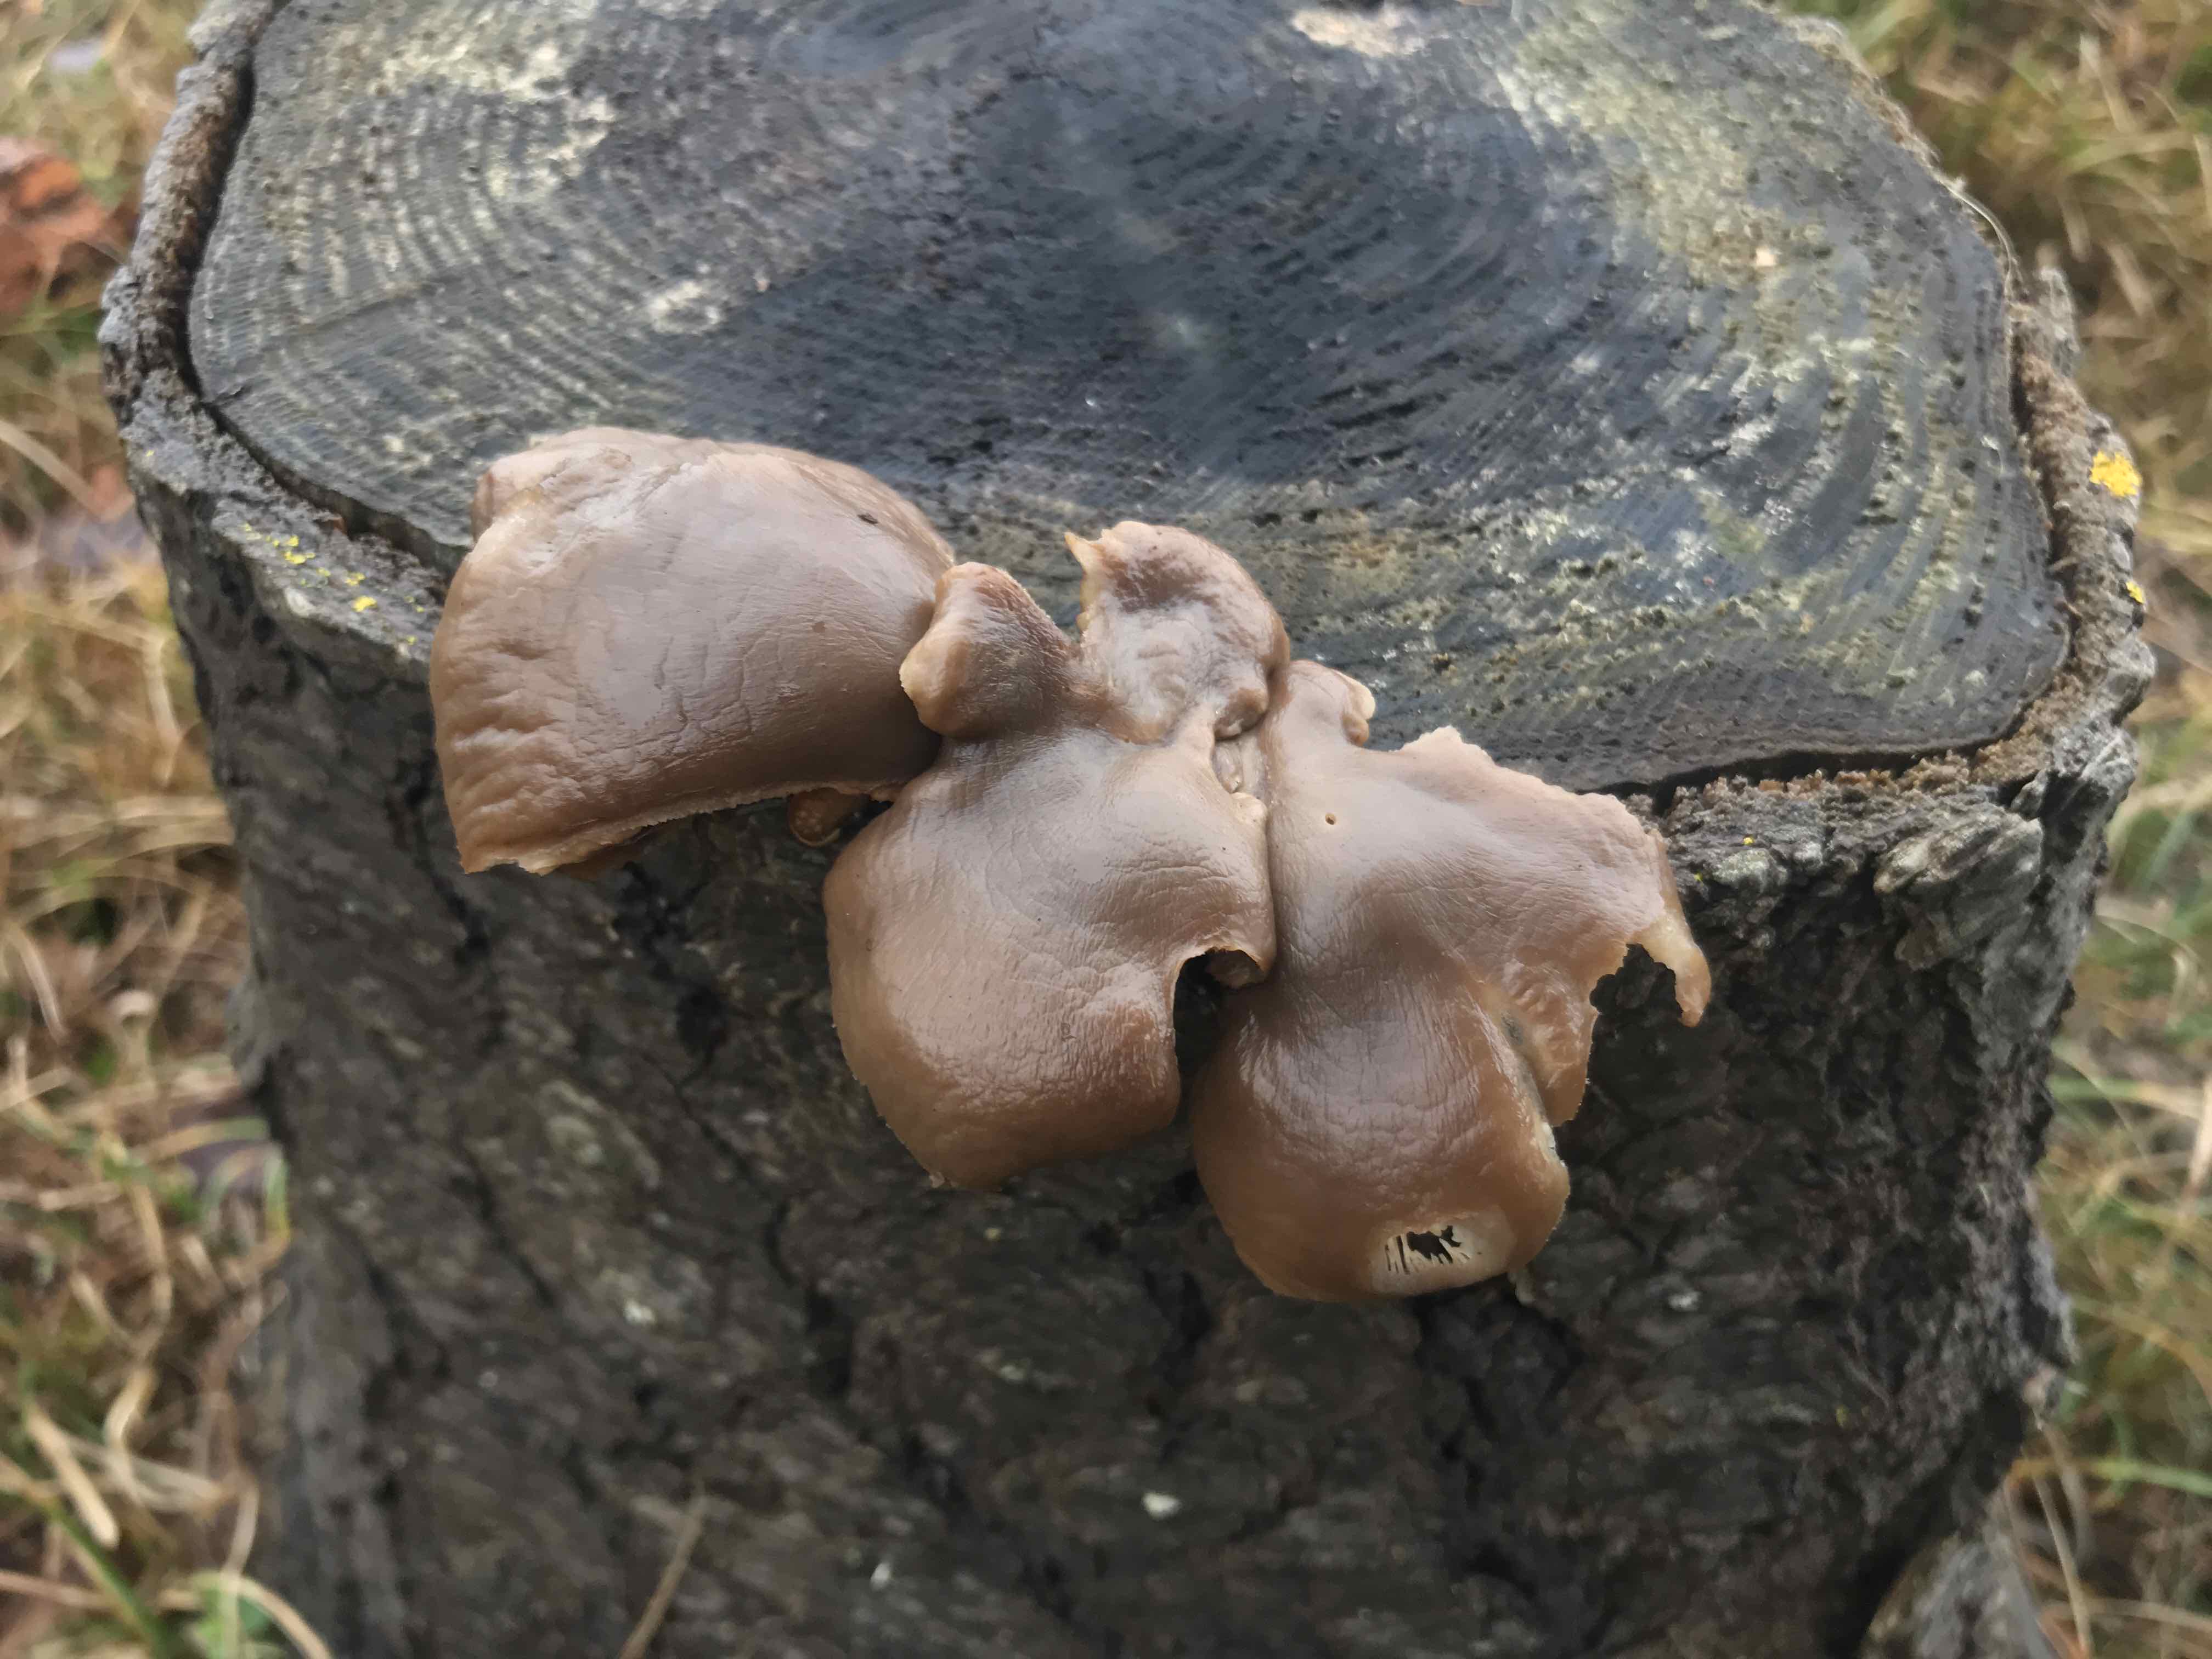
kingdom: Fungi
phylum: Basidiomycota
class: Agaricomycetes
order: Agaricales
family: Pleurotaceae
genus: Pleurotus
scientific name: Pleurotus ostreatus
